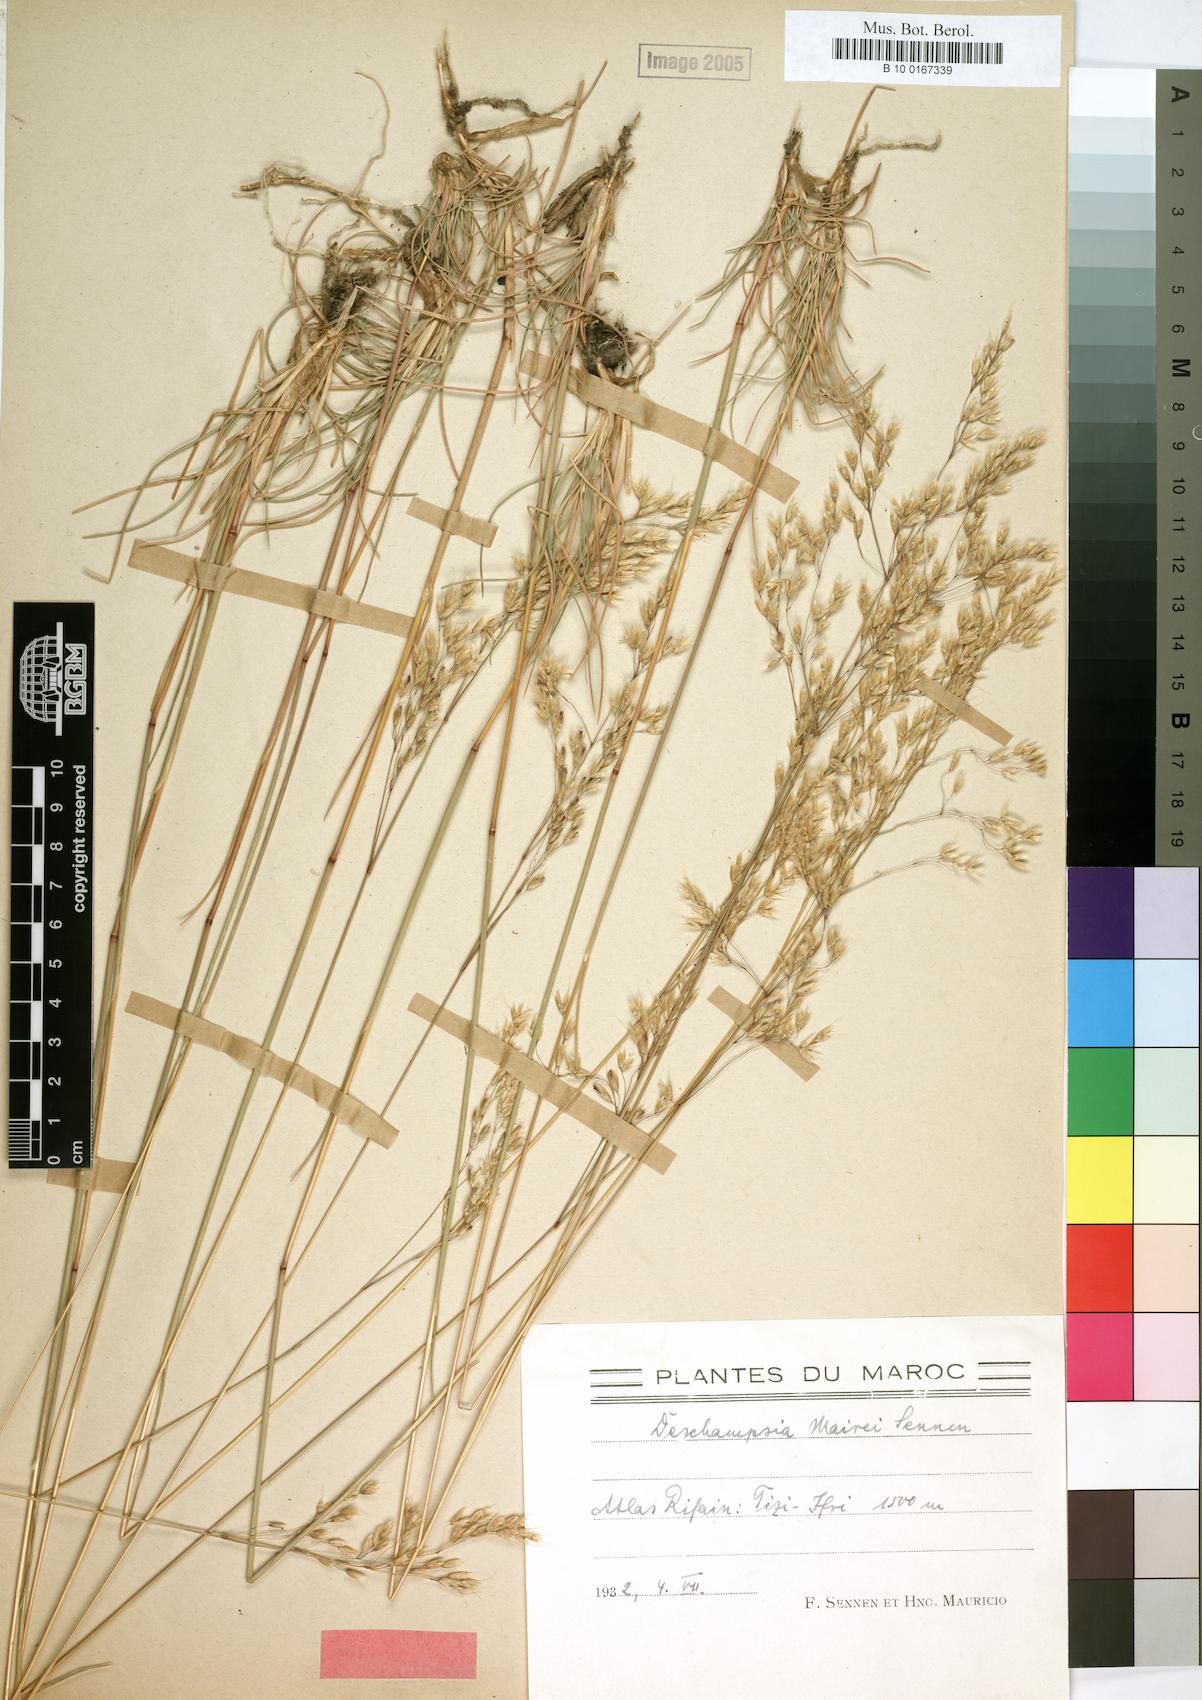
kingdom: Plantae
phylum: Tracheophyta
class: Liliopsida
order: Poales
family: Poaceae
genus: Avenella
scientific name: Avenella flexuosa
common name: Wavy hairgrass
